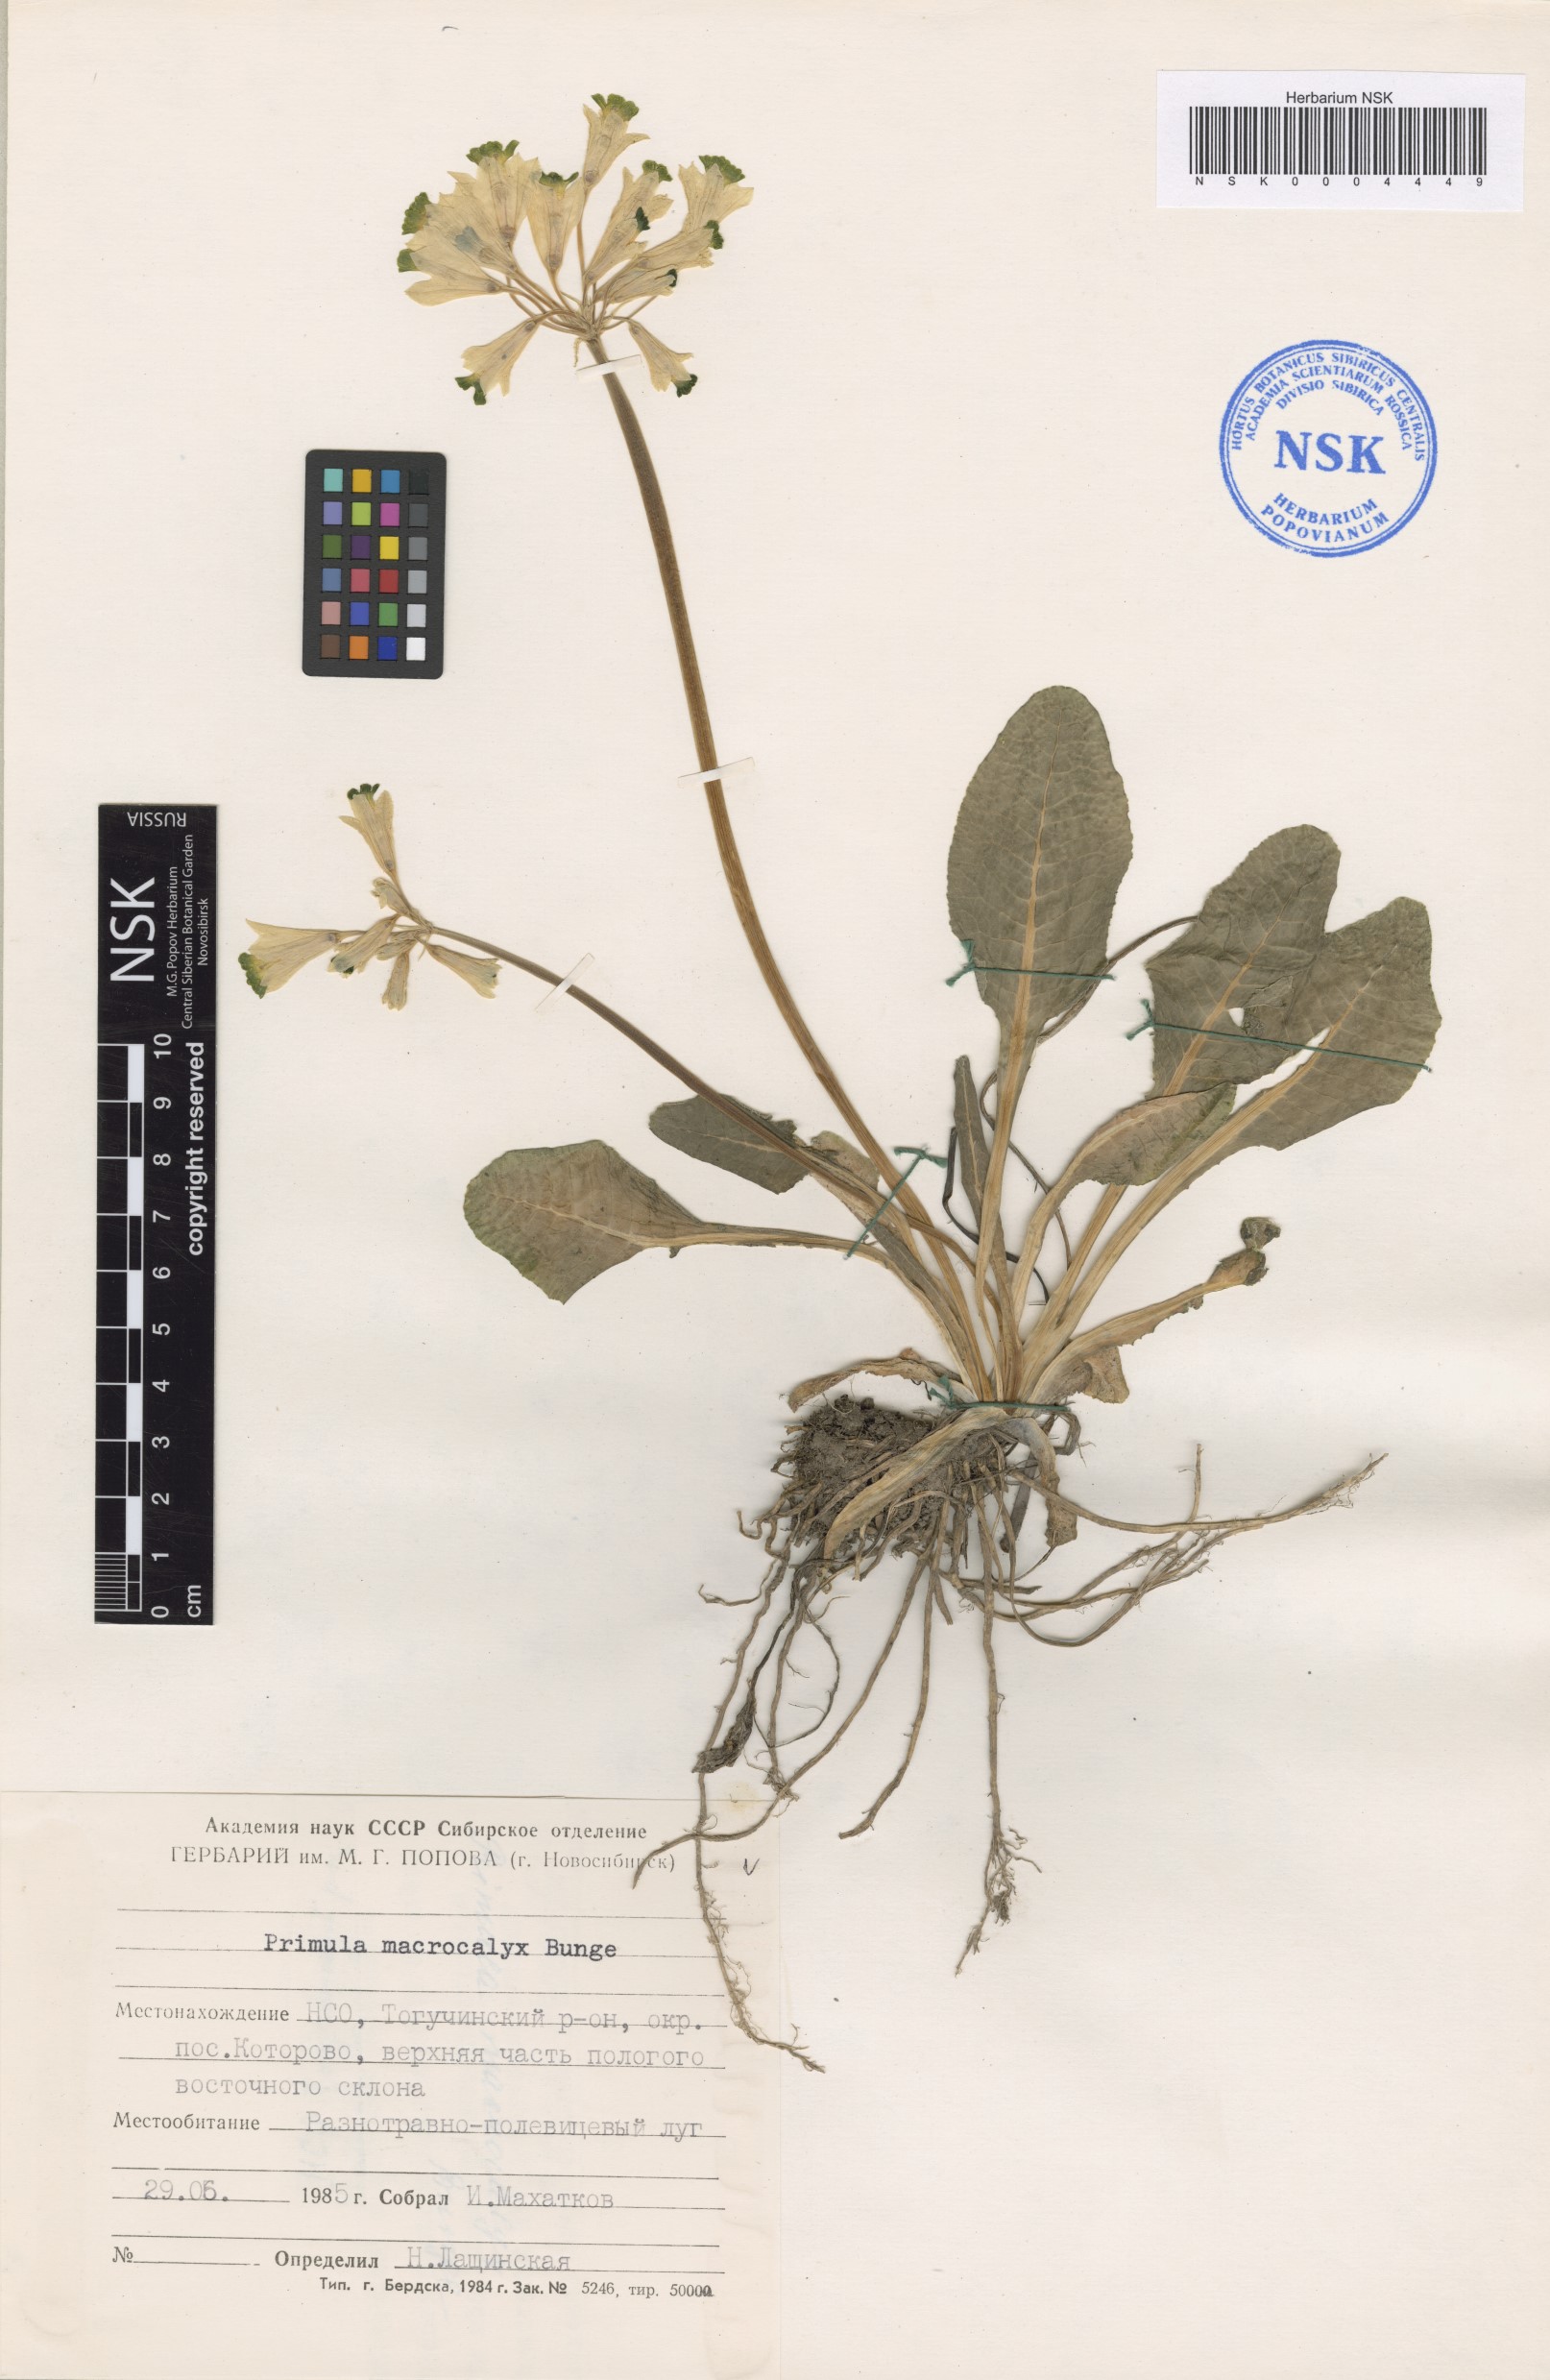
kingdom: Plantae
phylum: Tracheophyta
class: Magnoliopsida
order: Ericales
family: Primulaceae
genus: Primula
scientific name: Primula veris
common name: Cowslip
